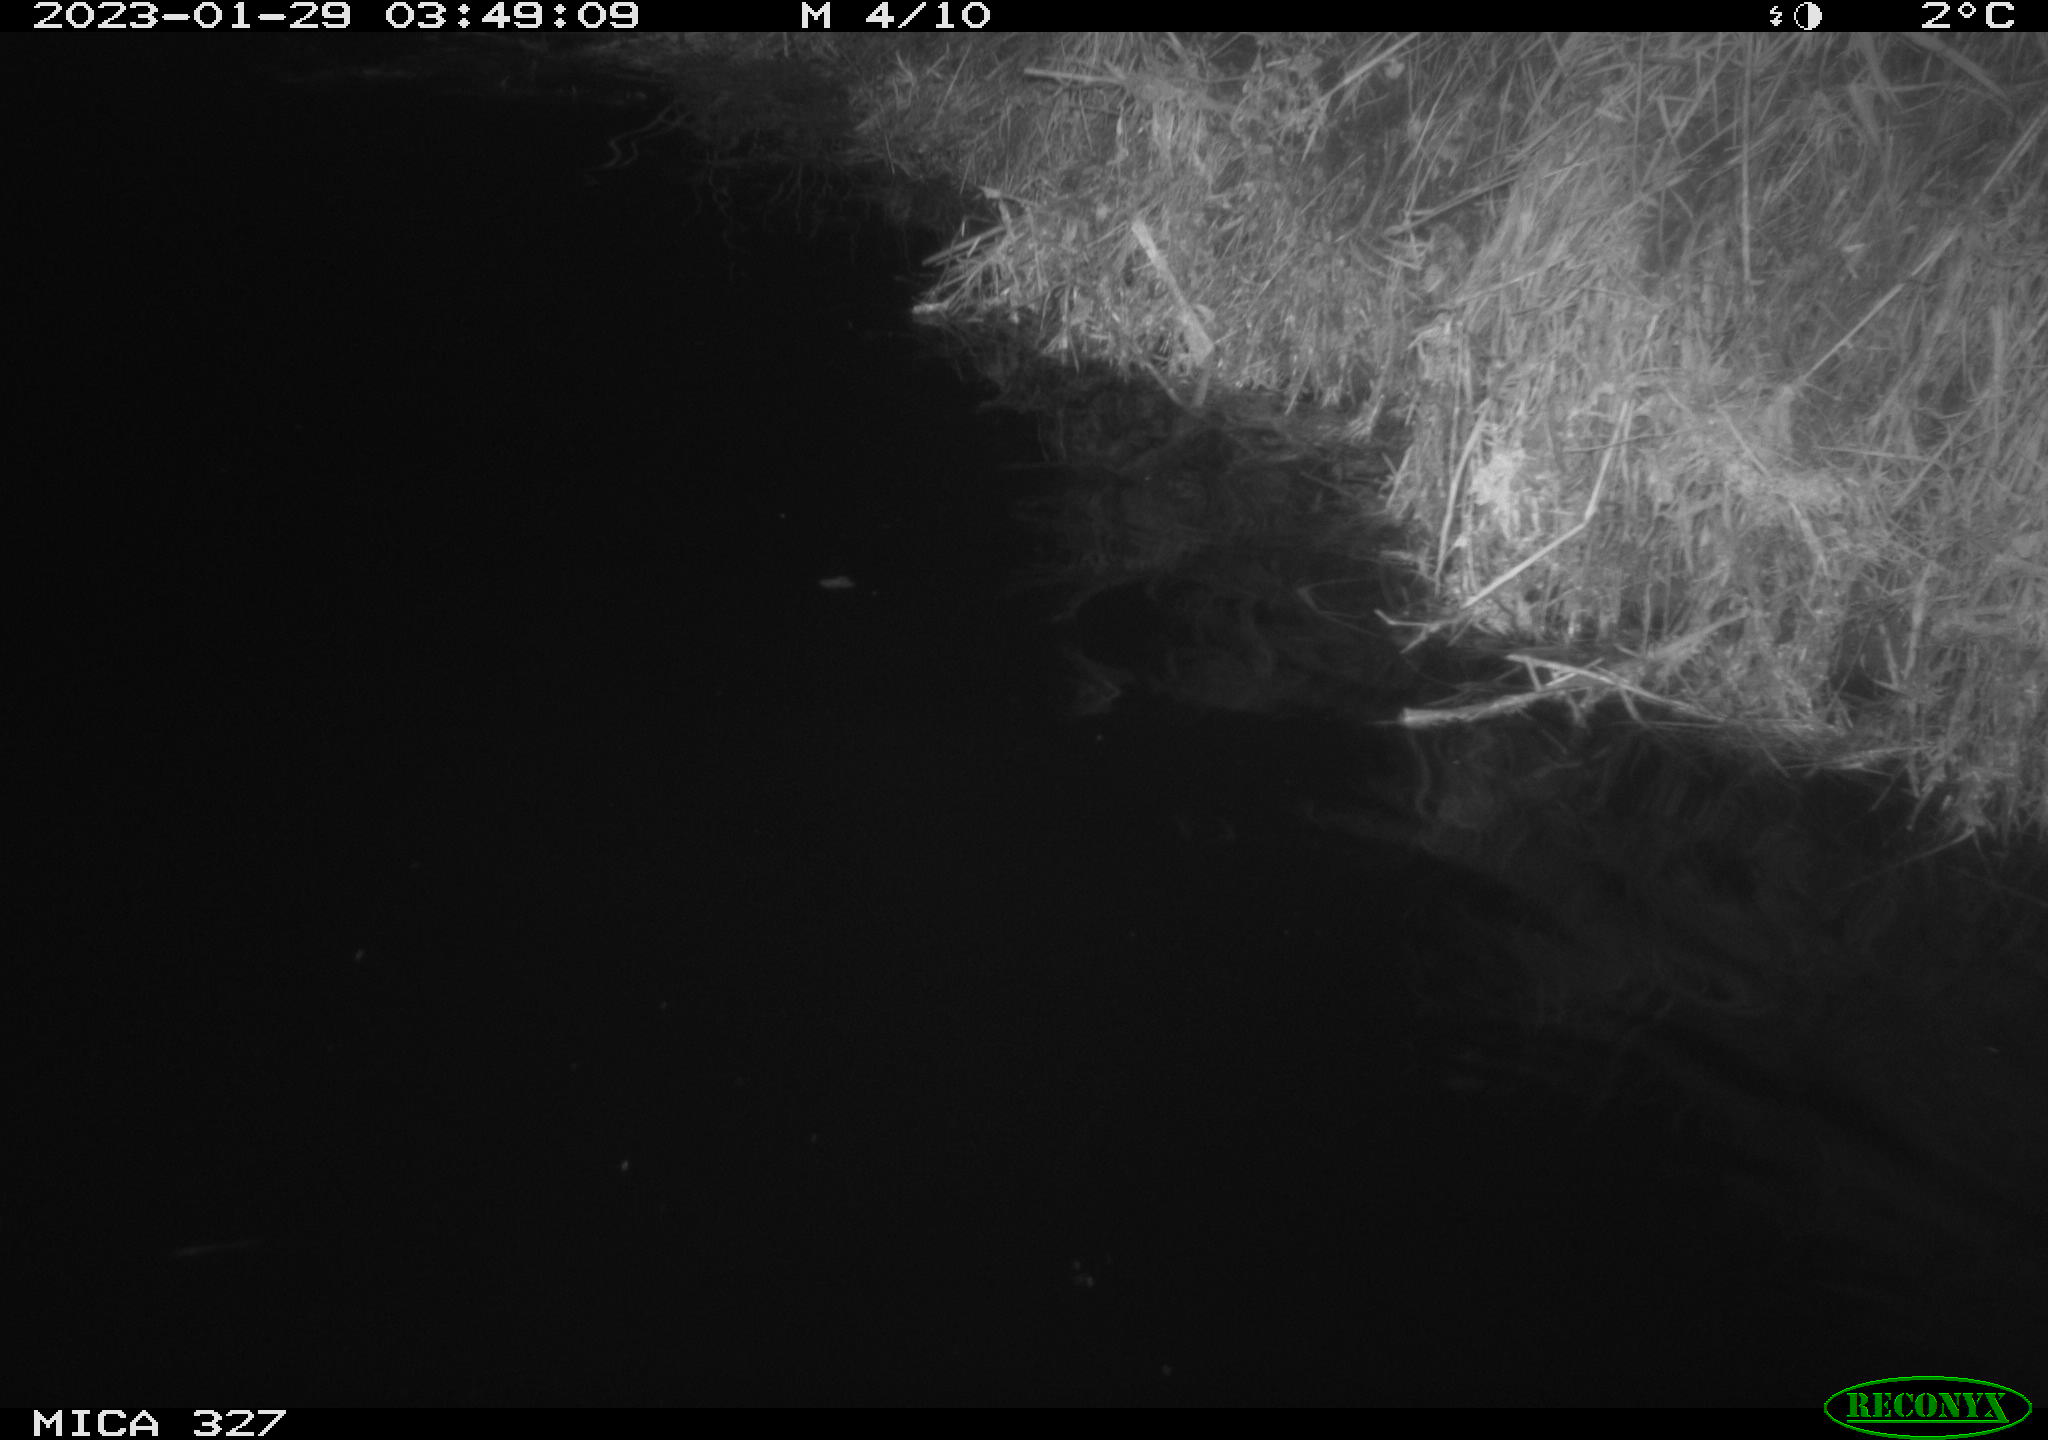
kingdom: Animalia
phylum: Chordata
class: Mammalia
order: Rodentia
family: Cricetidae
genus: Ondatra
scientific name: Ondatra zibethicus
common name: Muskrat
